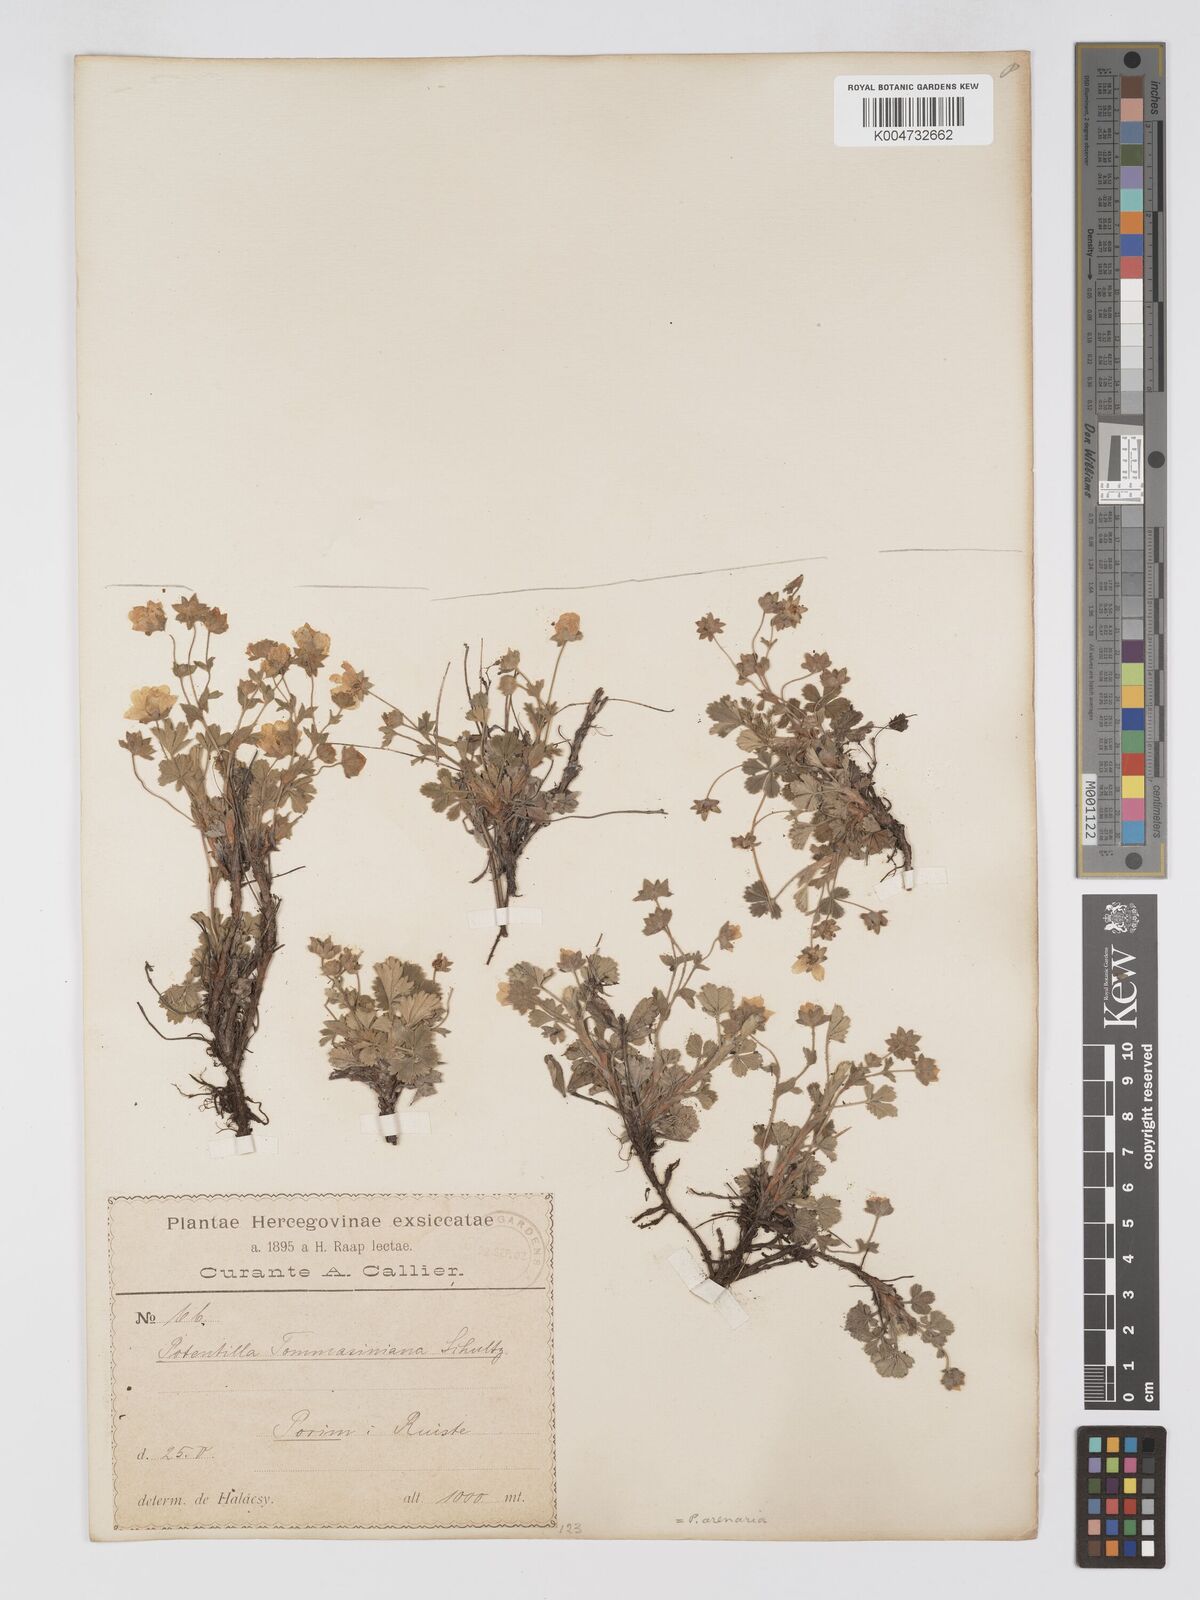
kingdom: Plantae
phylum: Tracheophyta
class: Magnoliopsida
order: Rosales
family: Rosaceae
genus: Potentilla
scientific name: Potentilla cinerea
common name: Ashy cinquefoil
